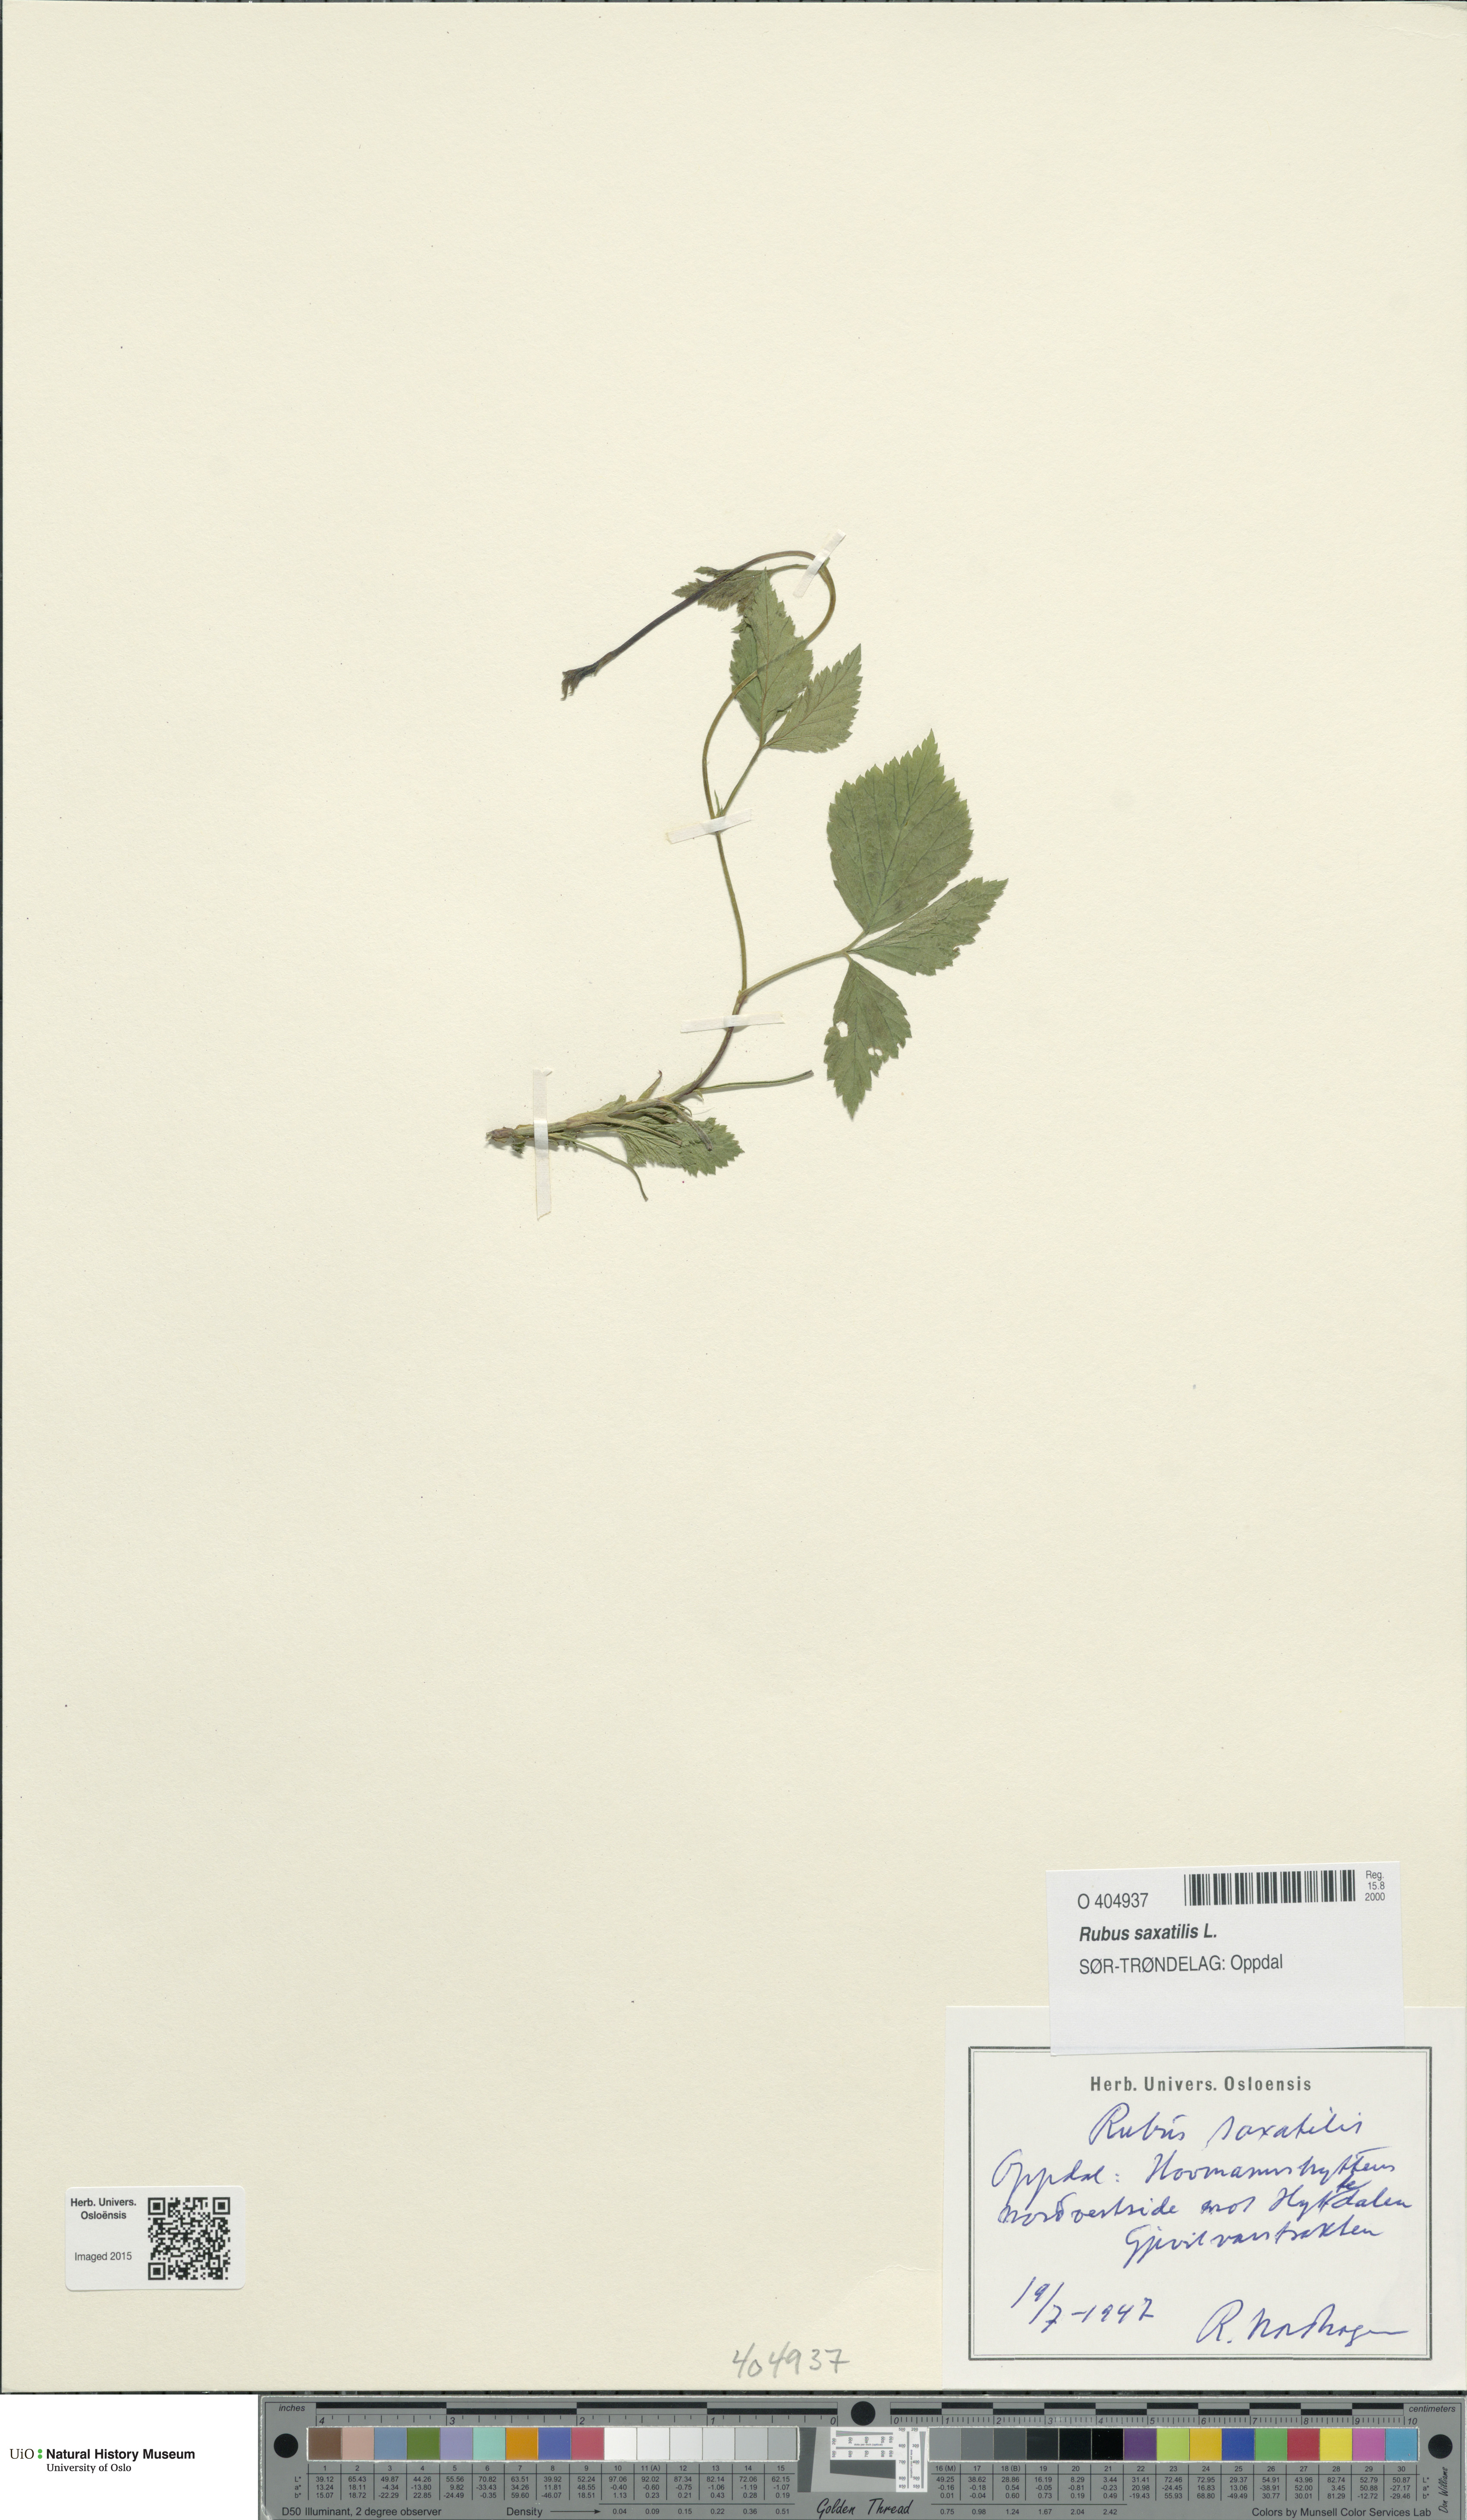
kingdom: Plantae
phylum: Tracheophyta
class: Magnoliopsida
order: Rosales
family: Rosaceae
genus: Rubus
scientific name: Rubus saxatilis
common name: Stone bramble
